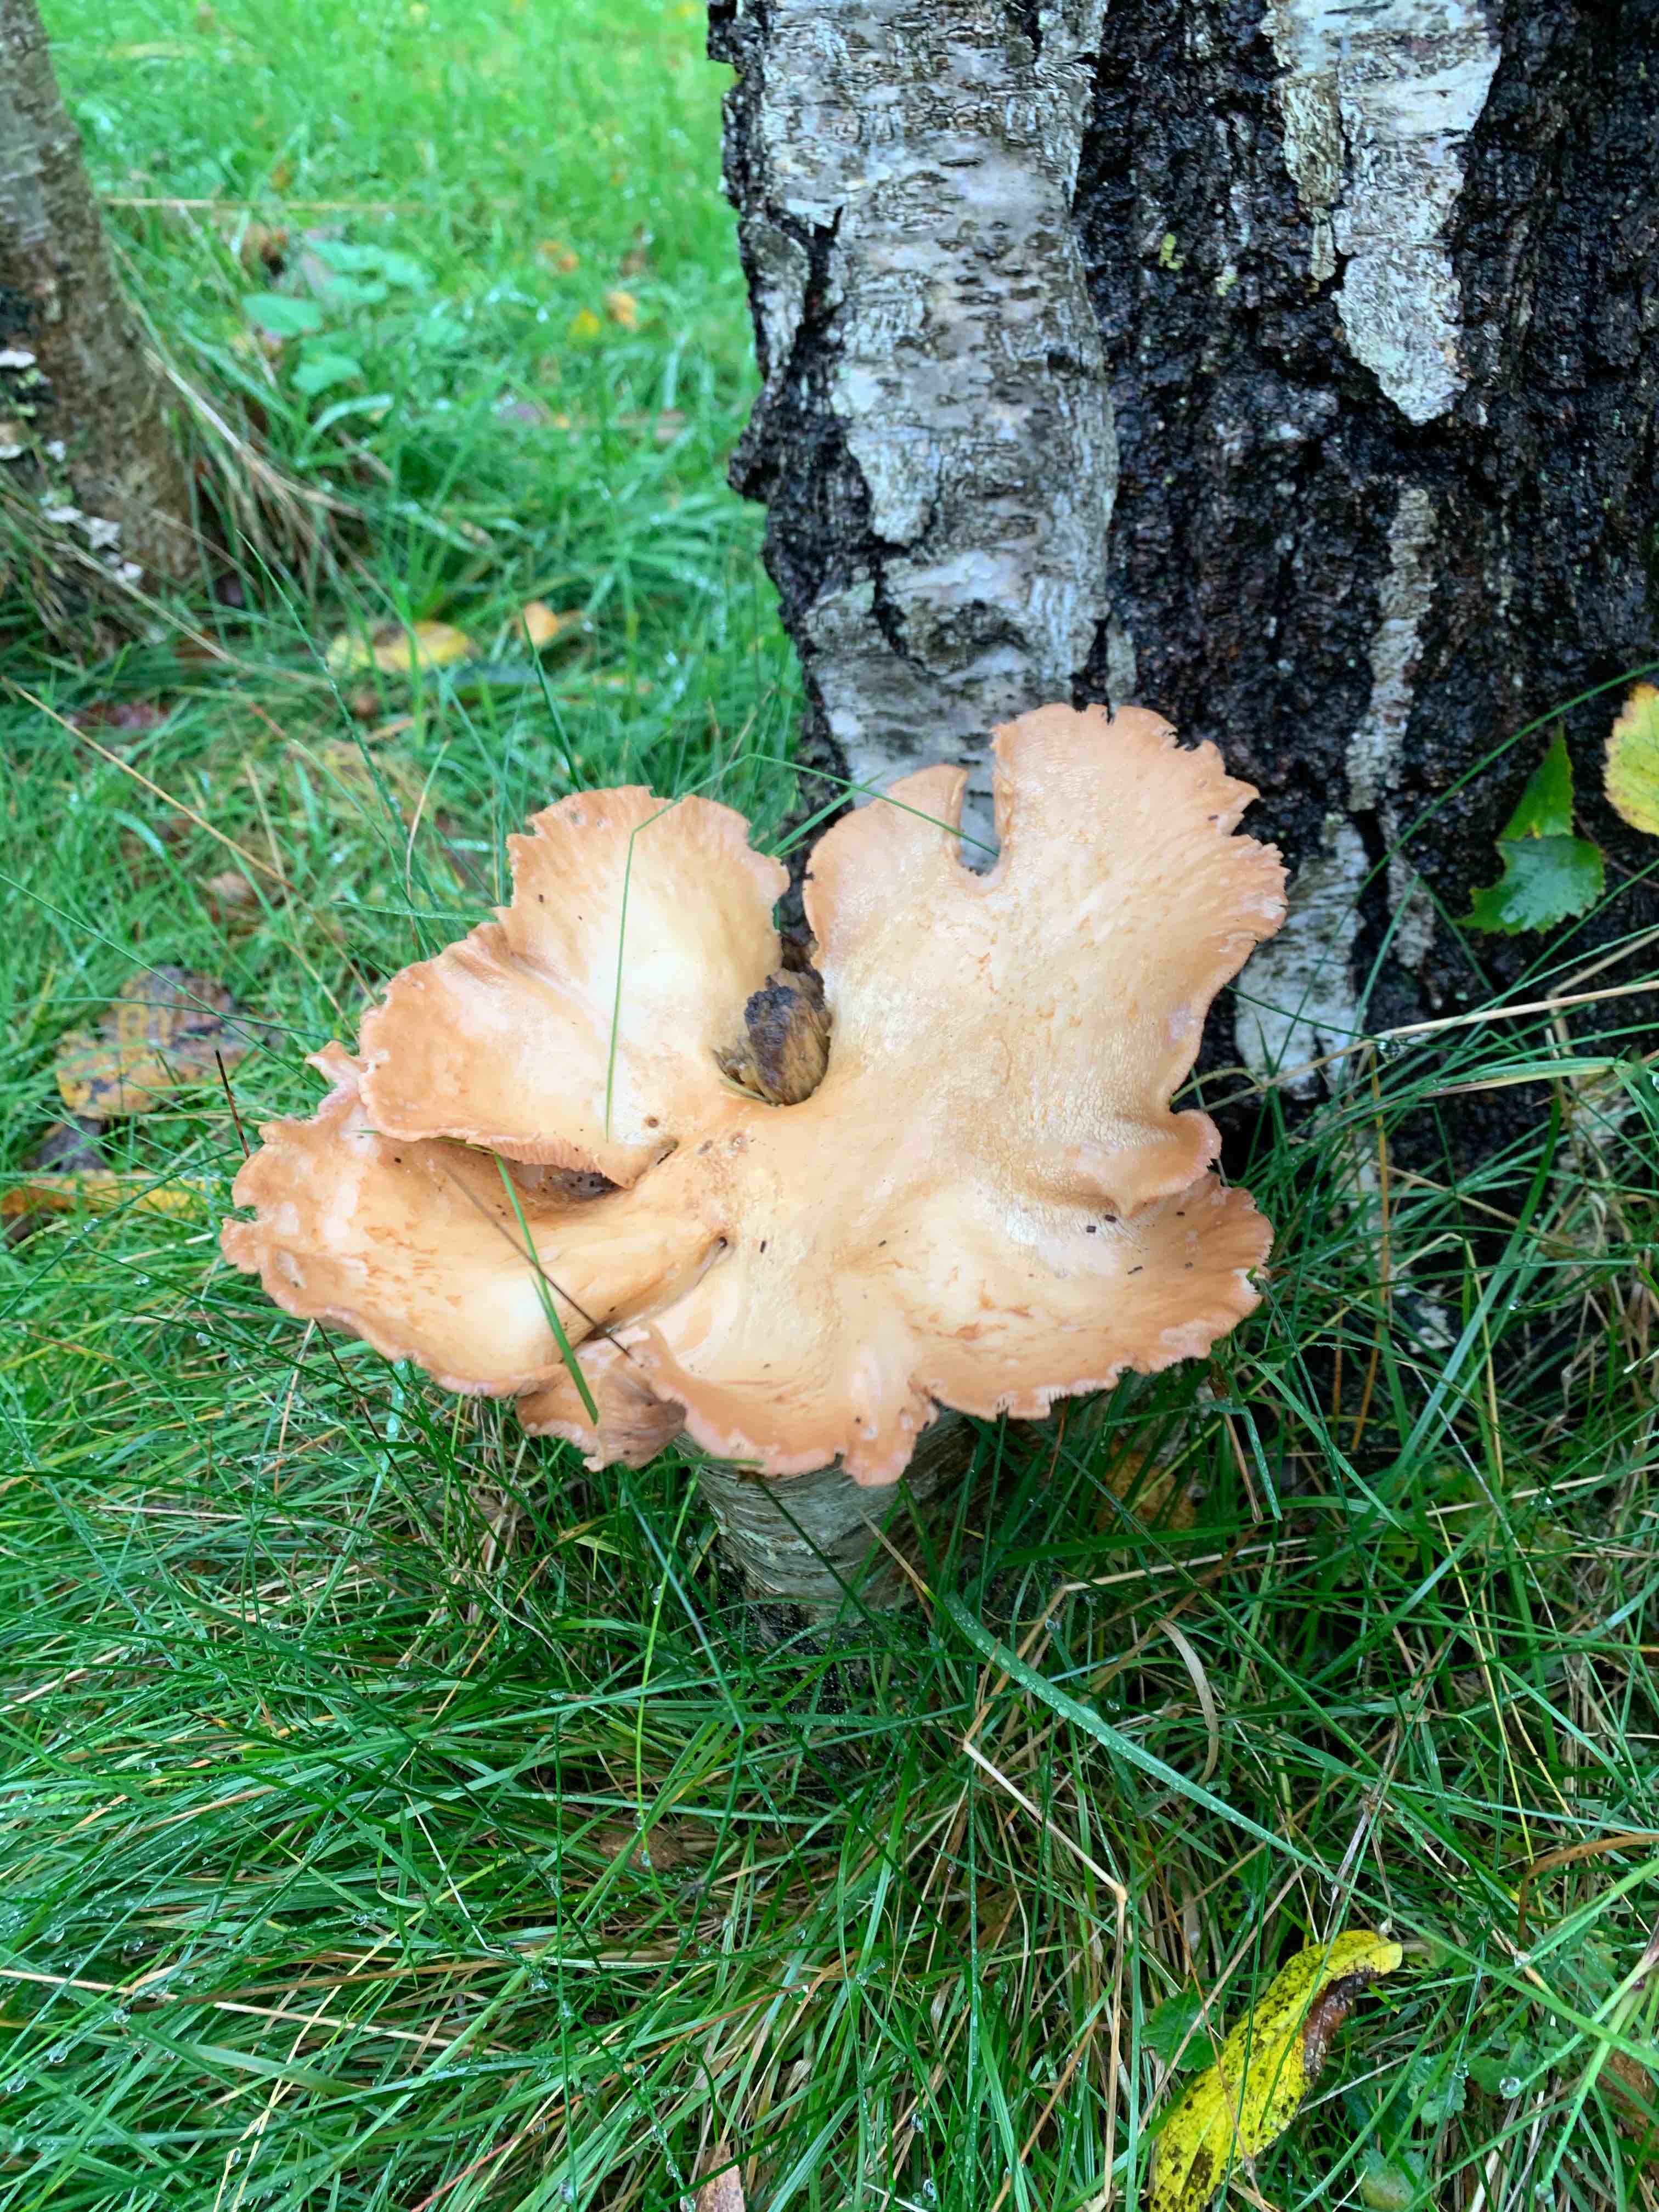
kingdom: Fungi
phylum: Basidiomycota
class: Agaricomycetes
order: Polyporales
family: Panaceae
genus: Panus
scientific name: Panus conchatus
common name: filtstokket læderhat
